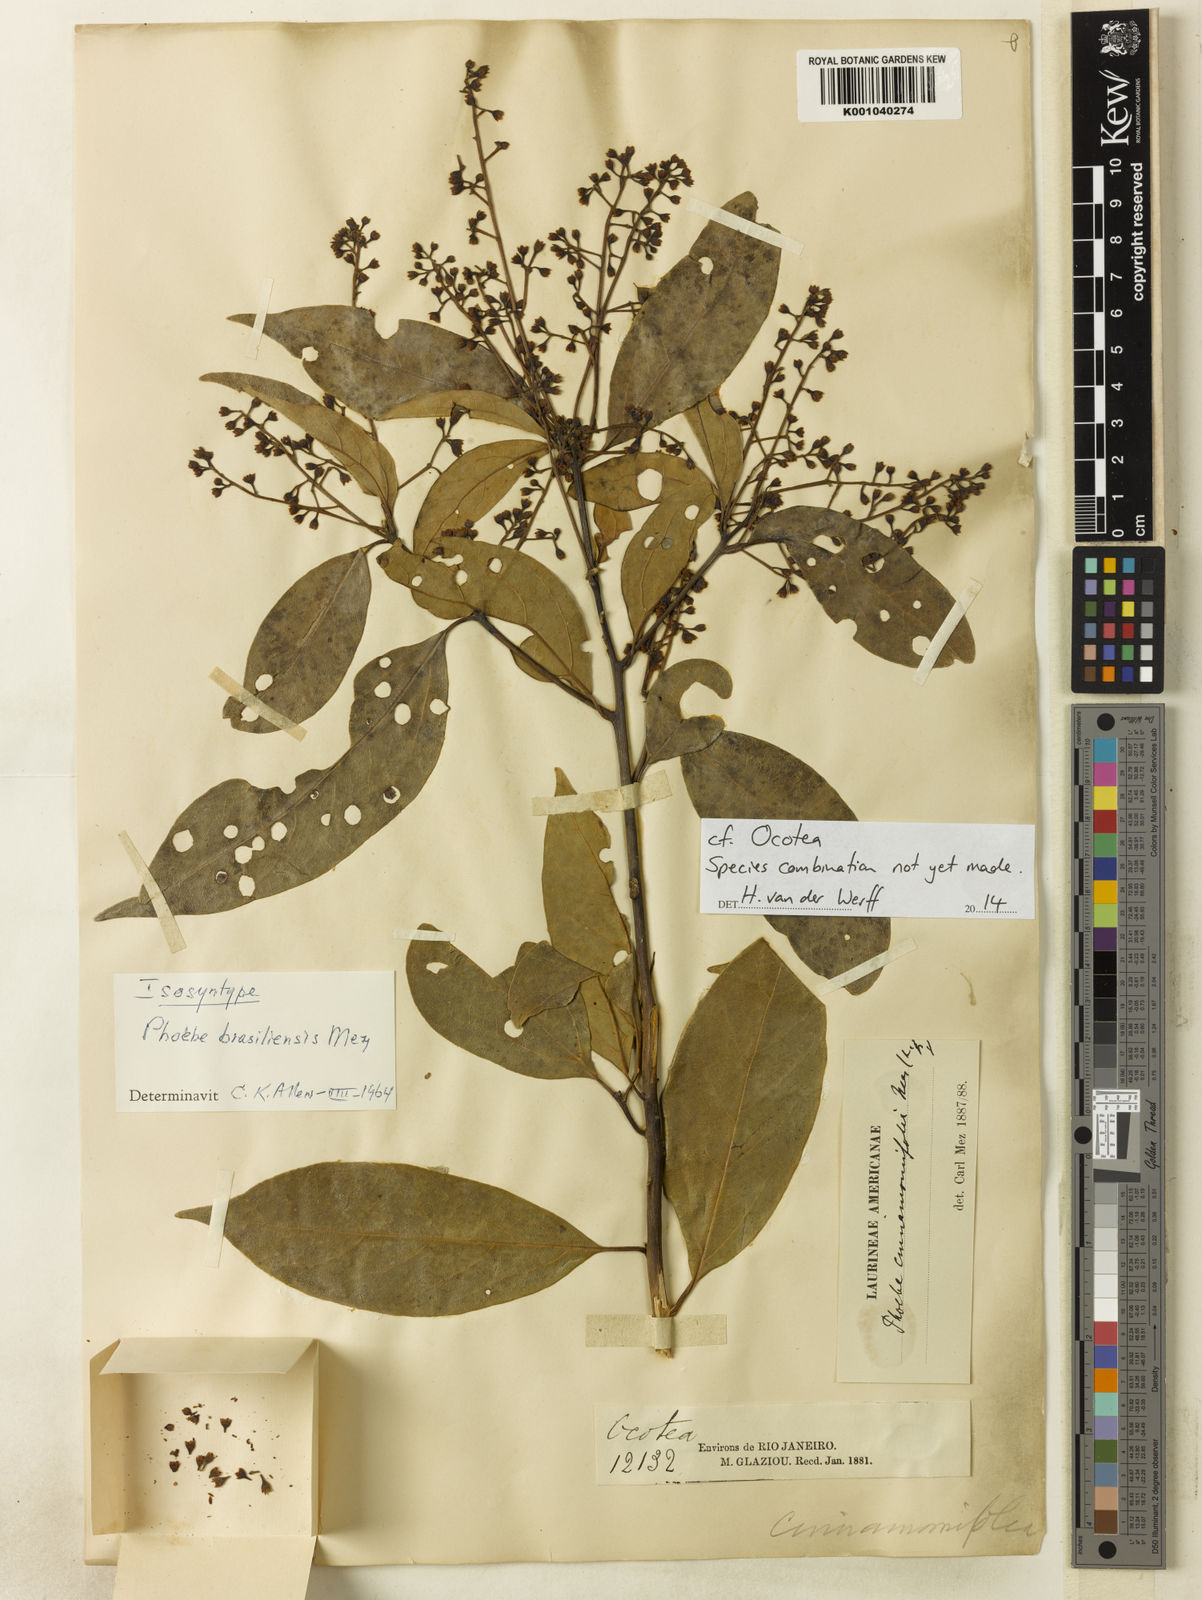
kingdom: Plantae
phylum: Tracheophyta
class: Magnoliopsida
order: Laurales
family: Lauraceae
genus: Aiouea
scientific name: Aiouea montana
